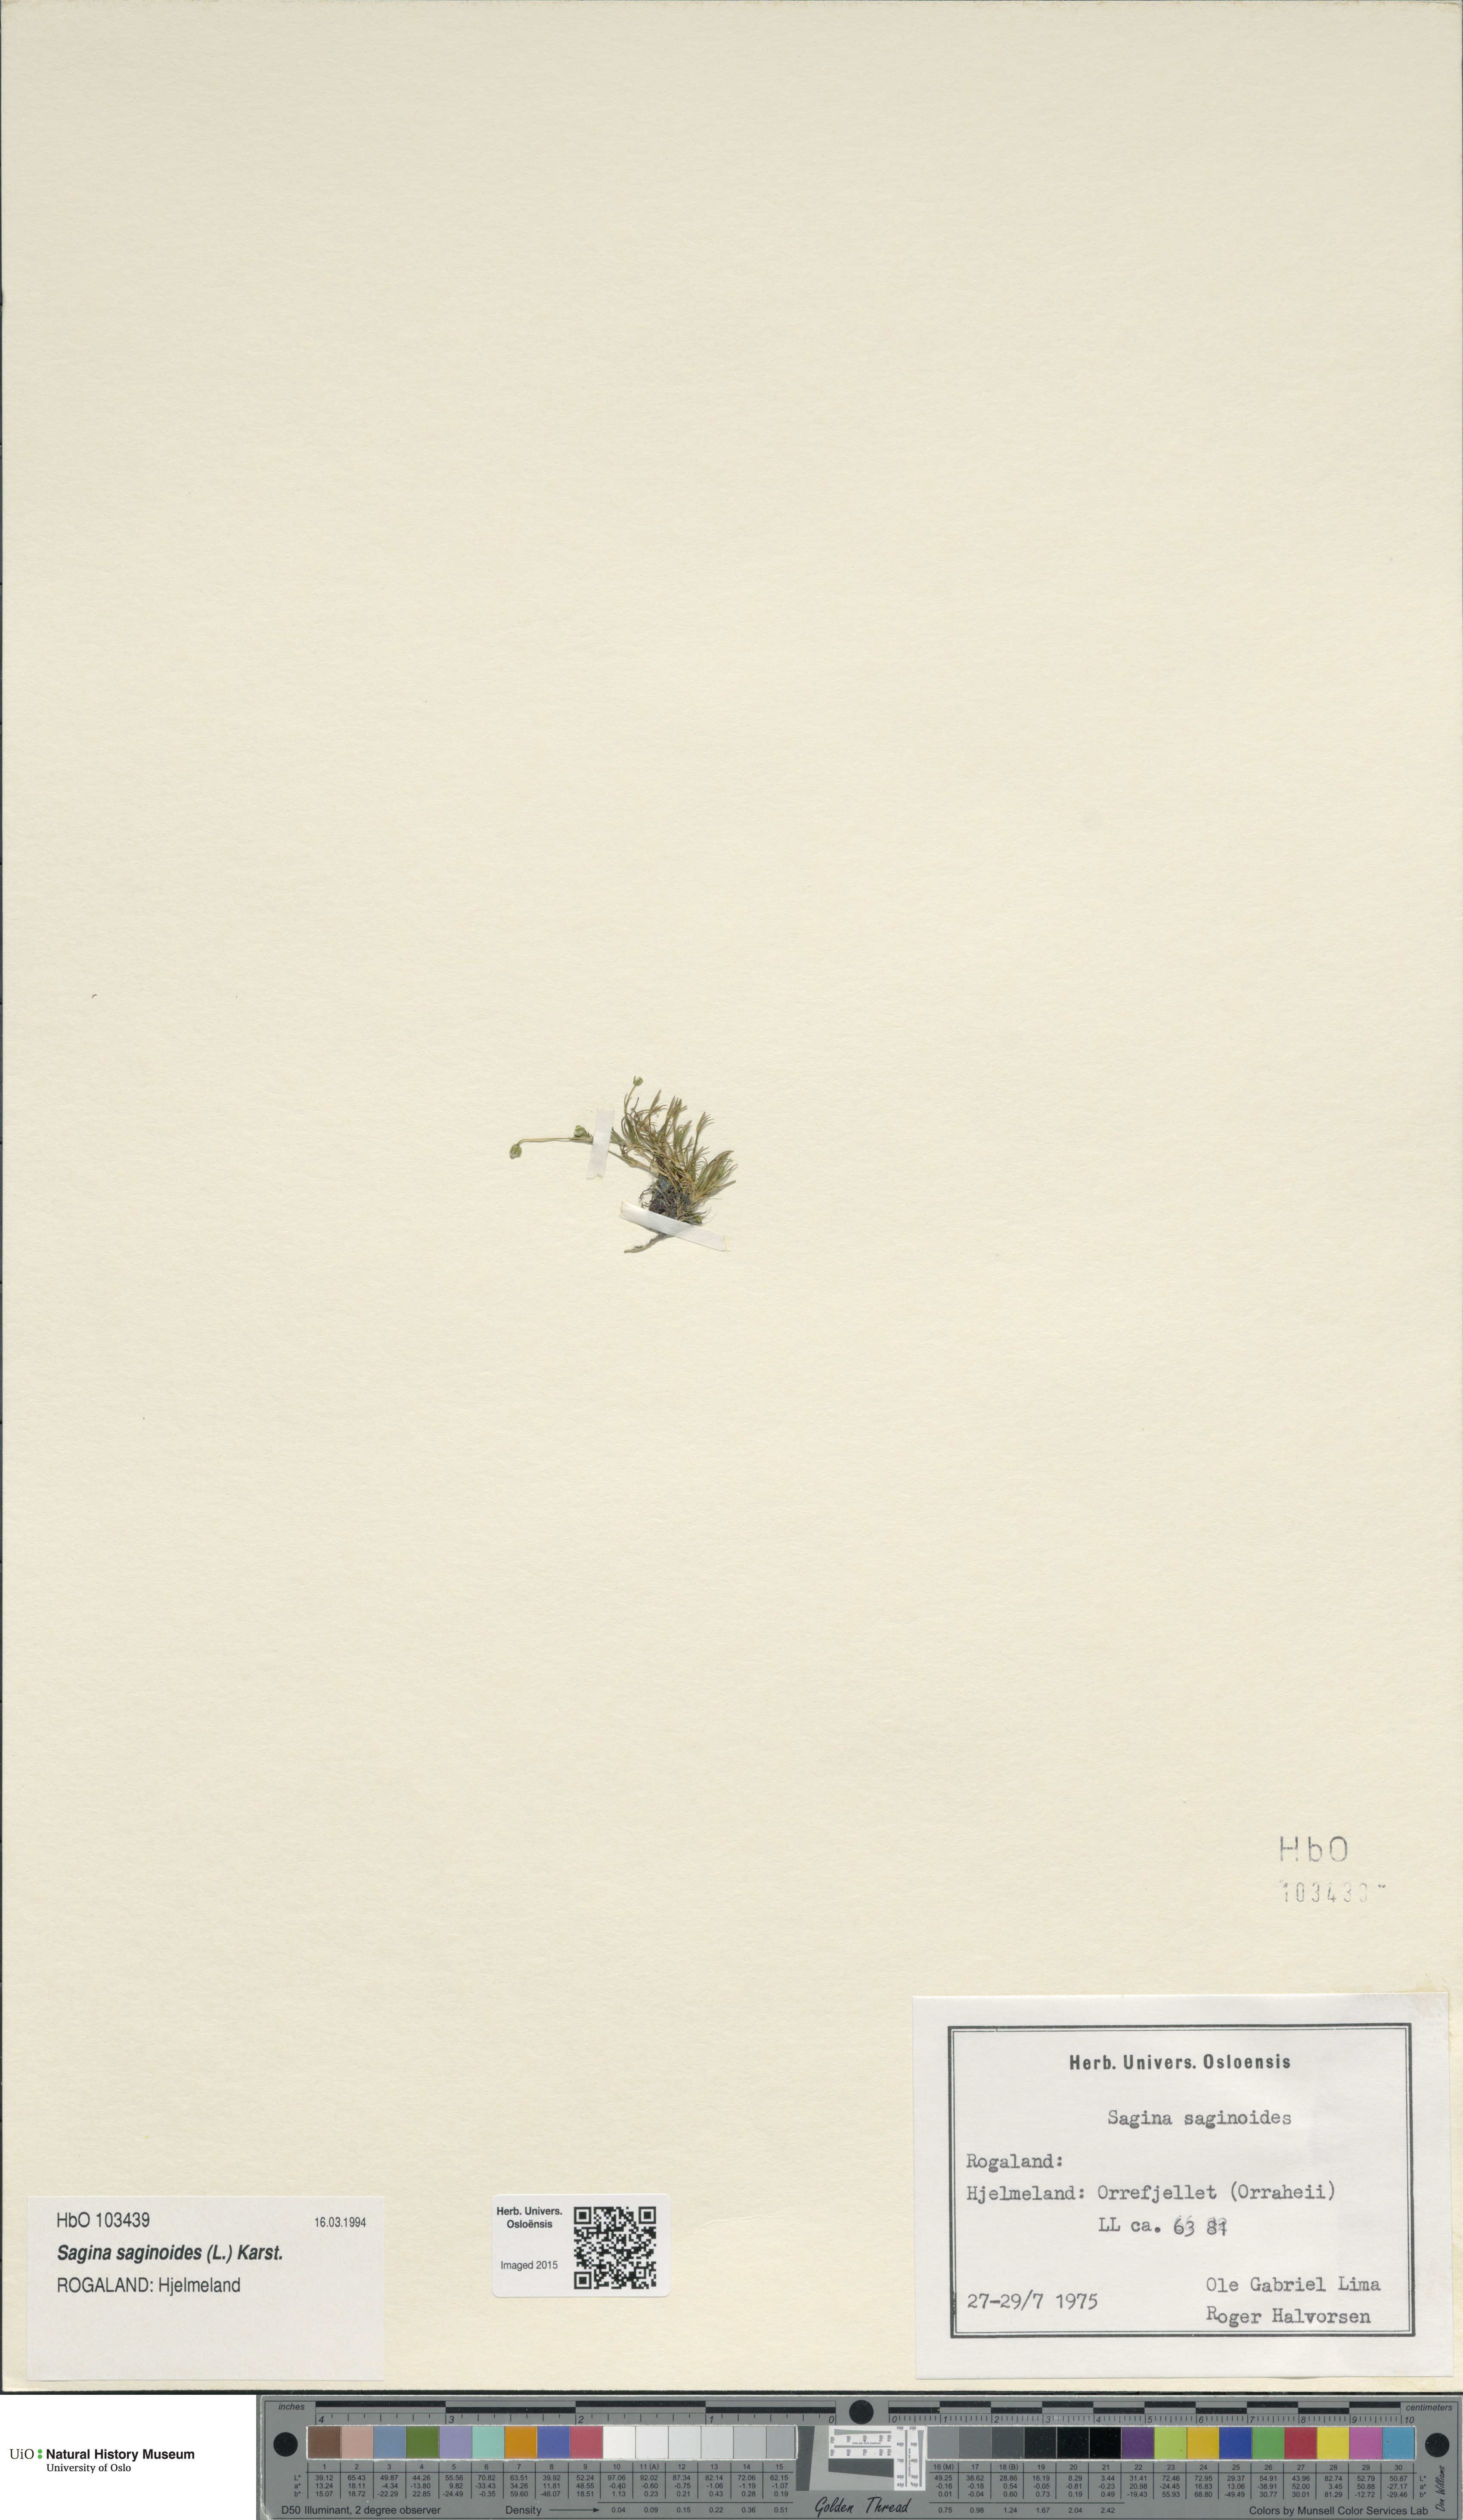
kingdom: Plantae
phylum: Tracheophyta
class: Magnoliopsida
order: Caryophyllales
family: Caryophyllaceae
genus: Sagina
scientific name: Sagina saginoides
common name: Alpine pearlwort
